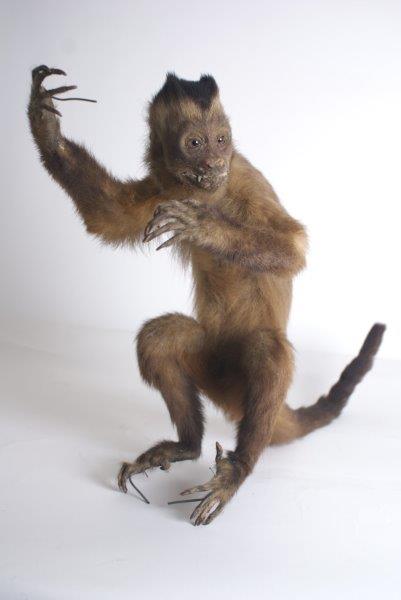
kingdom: Animalia
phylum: Chordata
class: Mammalia
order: Primates
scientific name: Primates
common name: Primates
